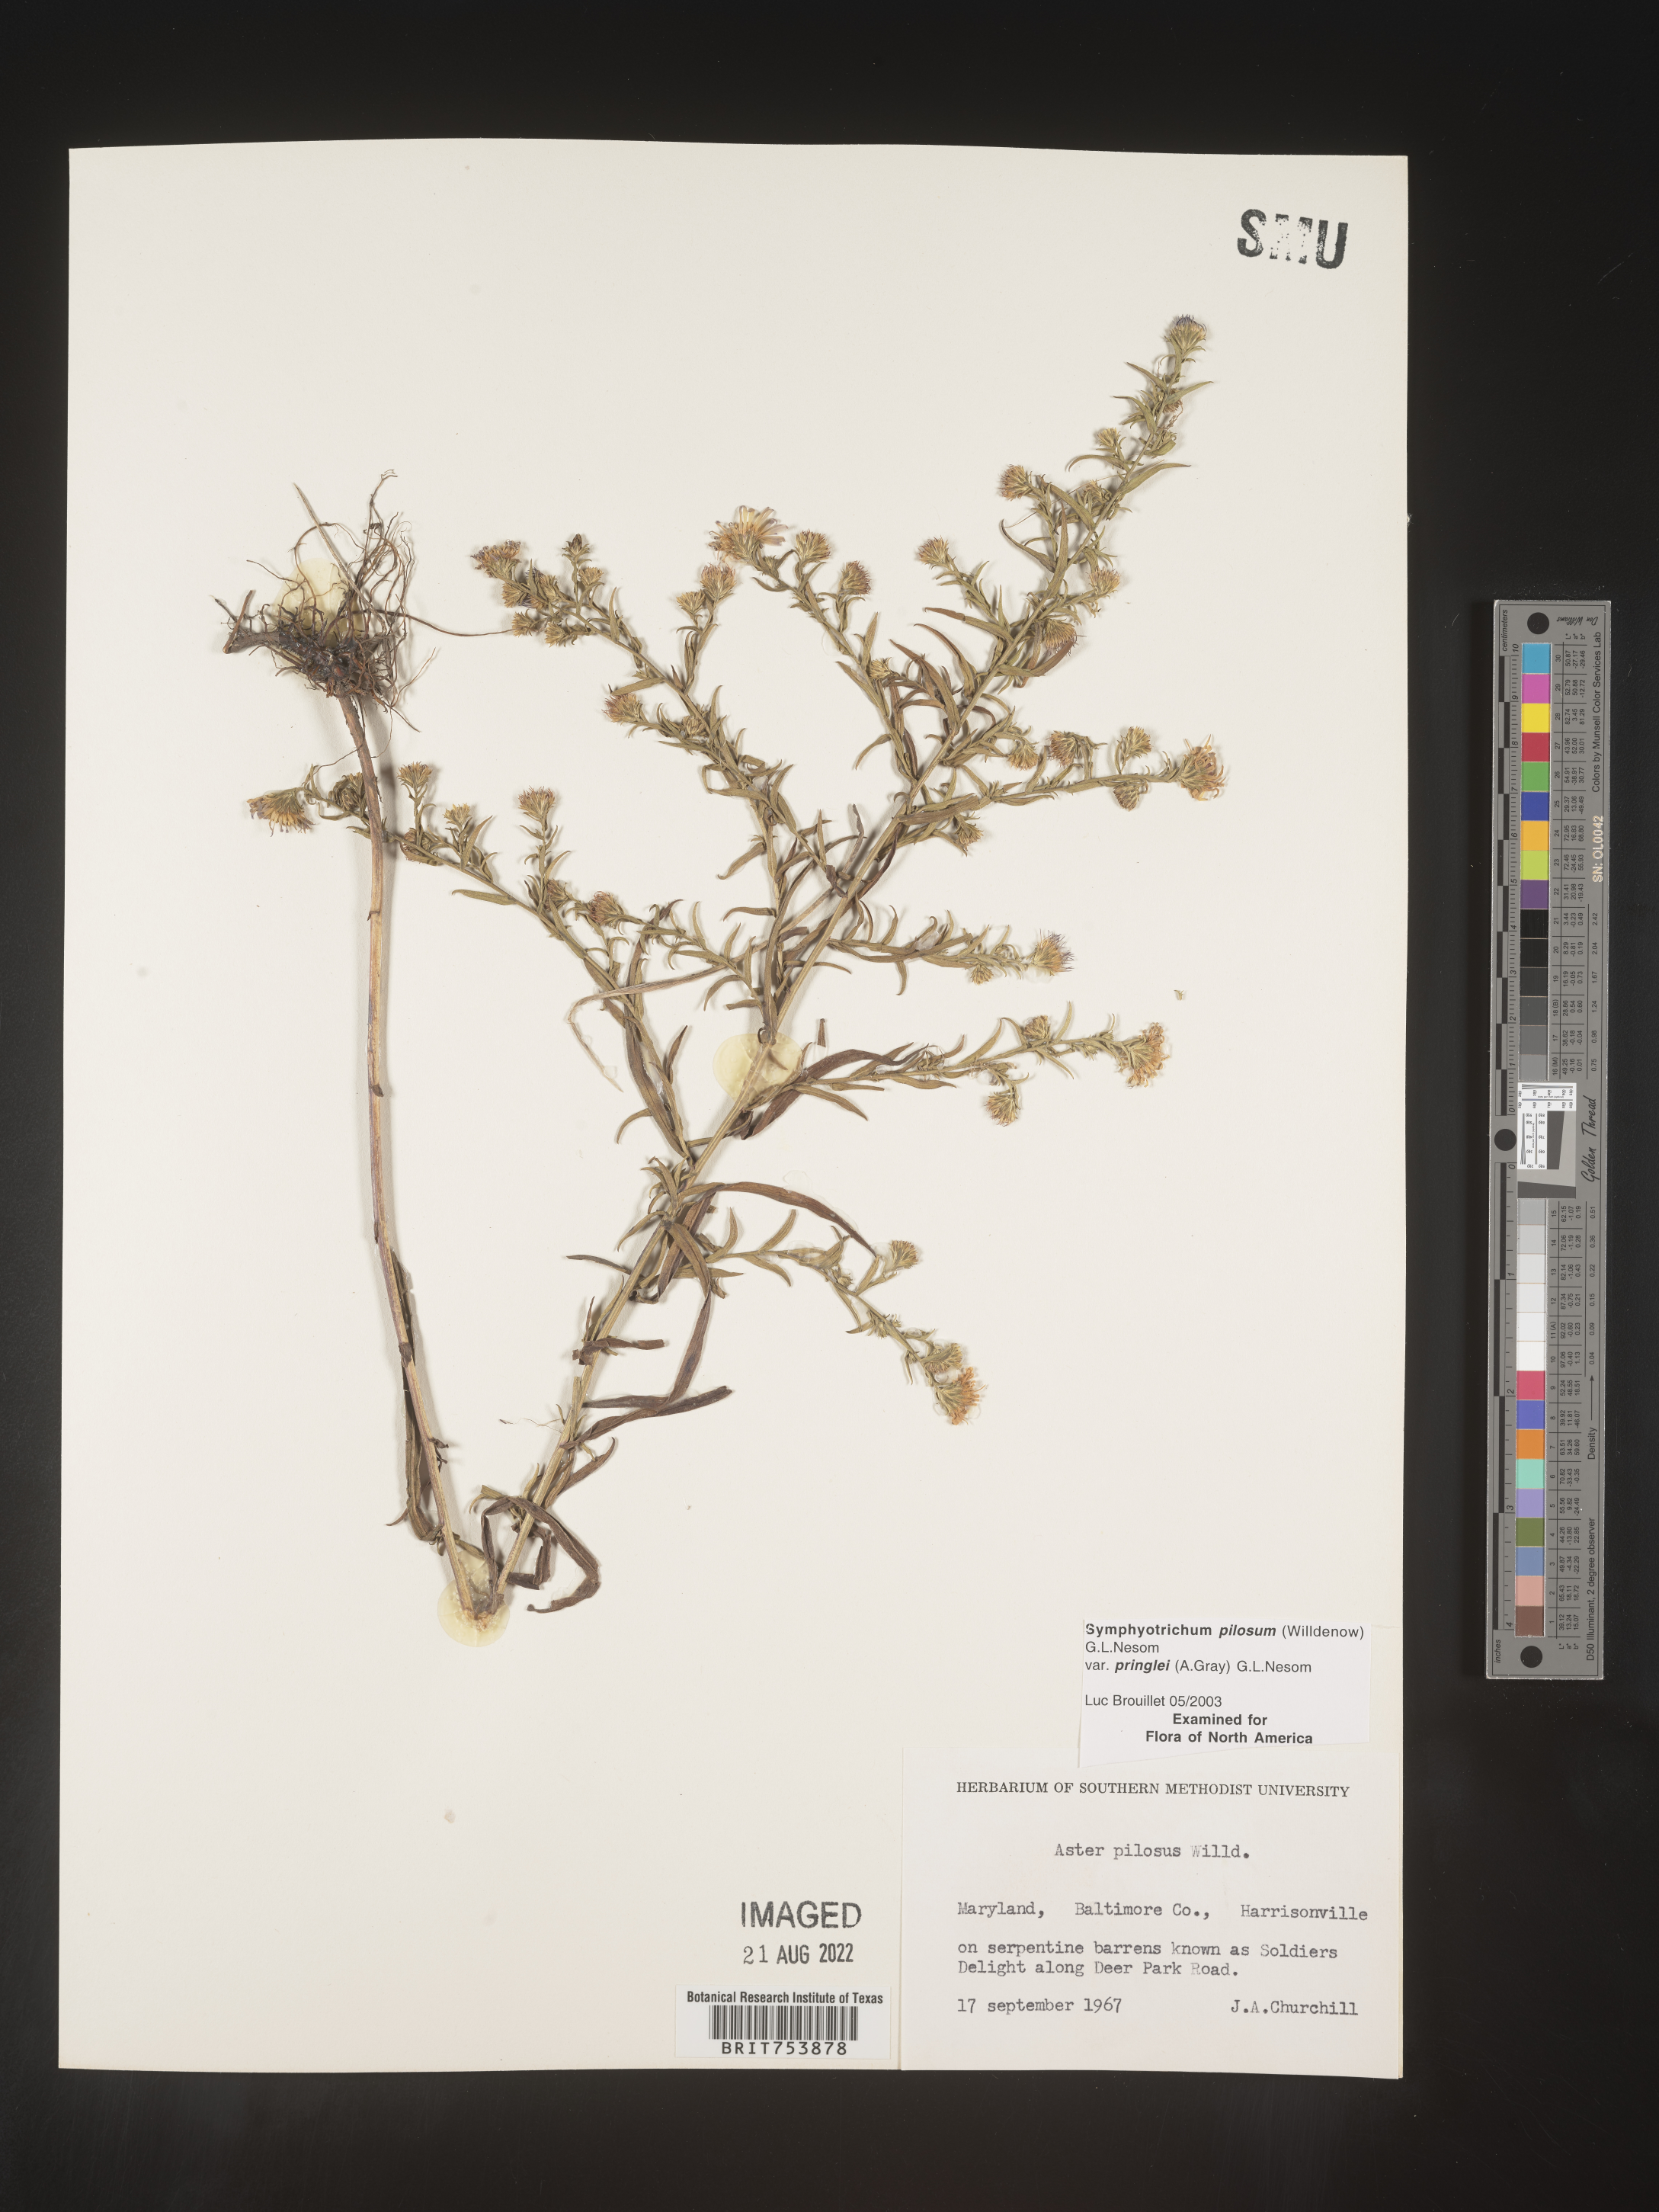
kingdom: Plantae
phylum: Tracheophyta
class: Magnoliopsida
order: Asterales
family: Asteraceae
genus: Symphyotrichum
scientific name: Symphyotrichum pilosum
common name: Awl aster
